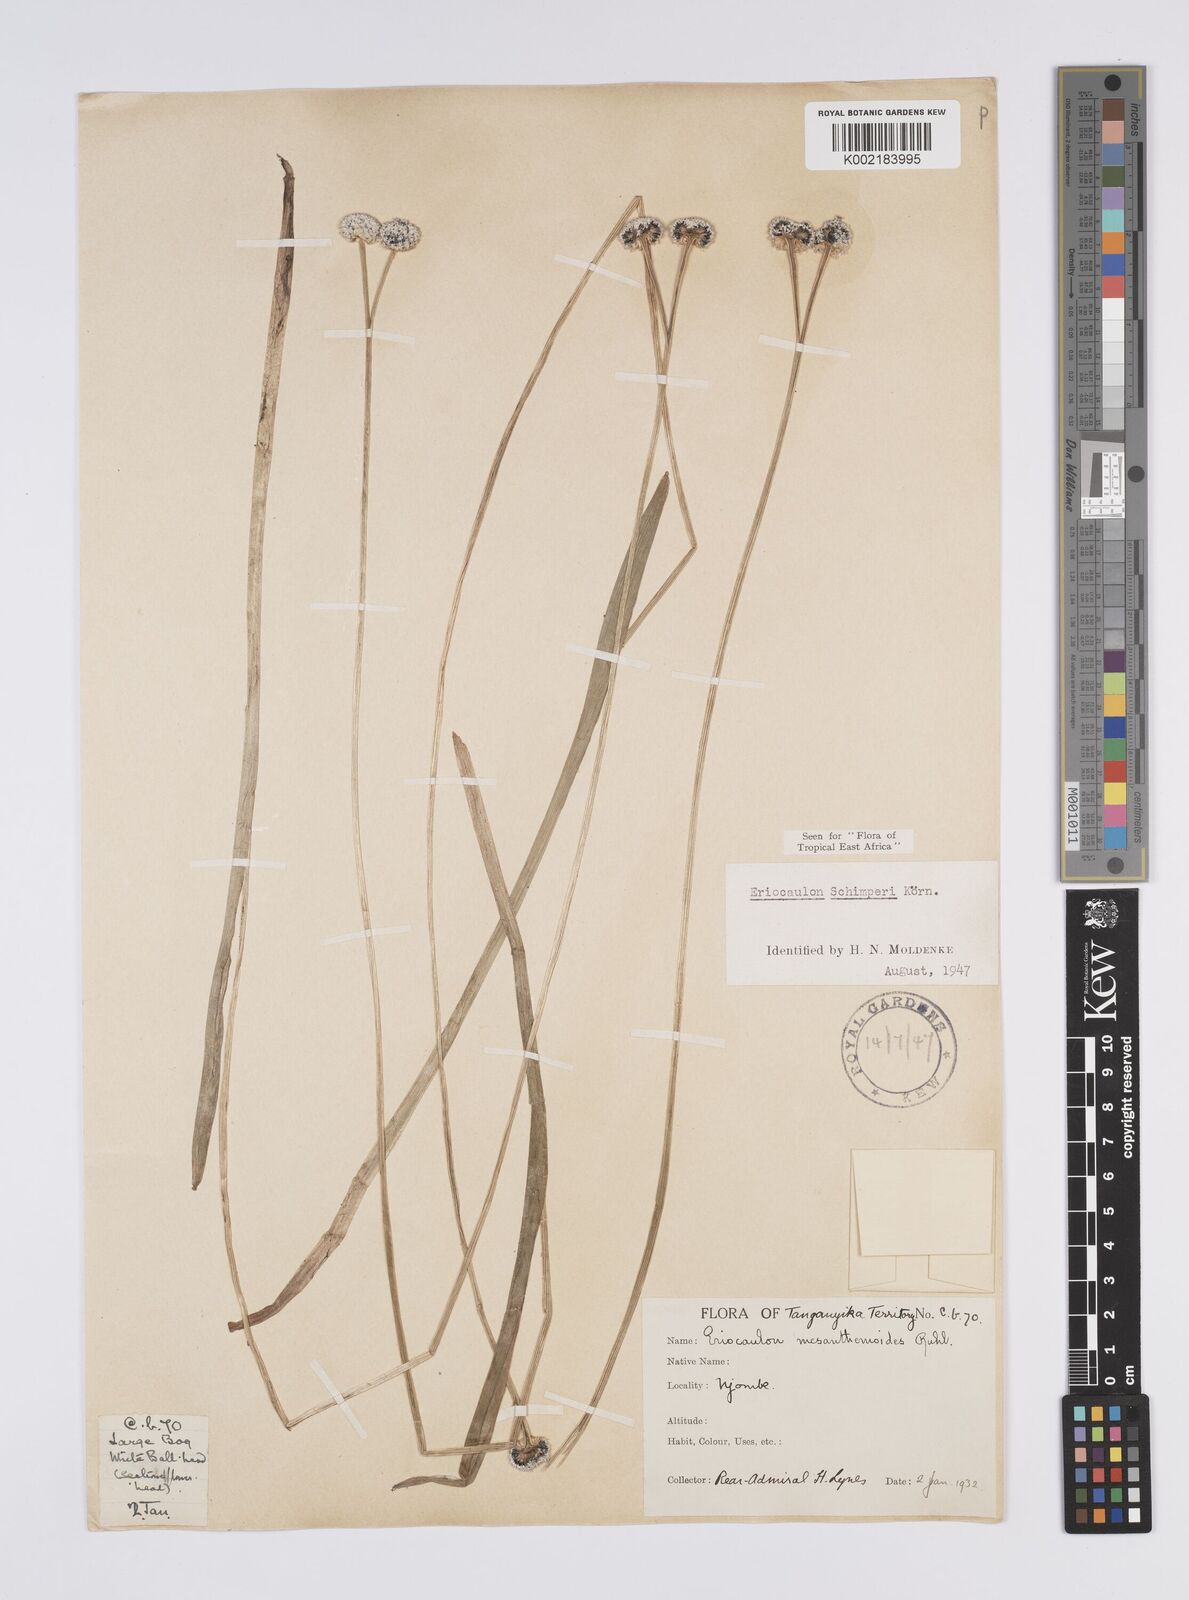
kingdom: Plantae
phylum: Tracheophyta
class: Liliopsida
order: Poales
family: Eriocaulaceae
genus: Eriocaulon
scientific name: Eriocaulon schimperi
